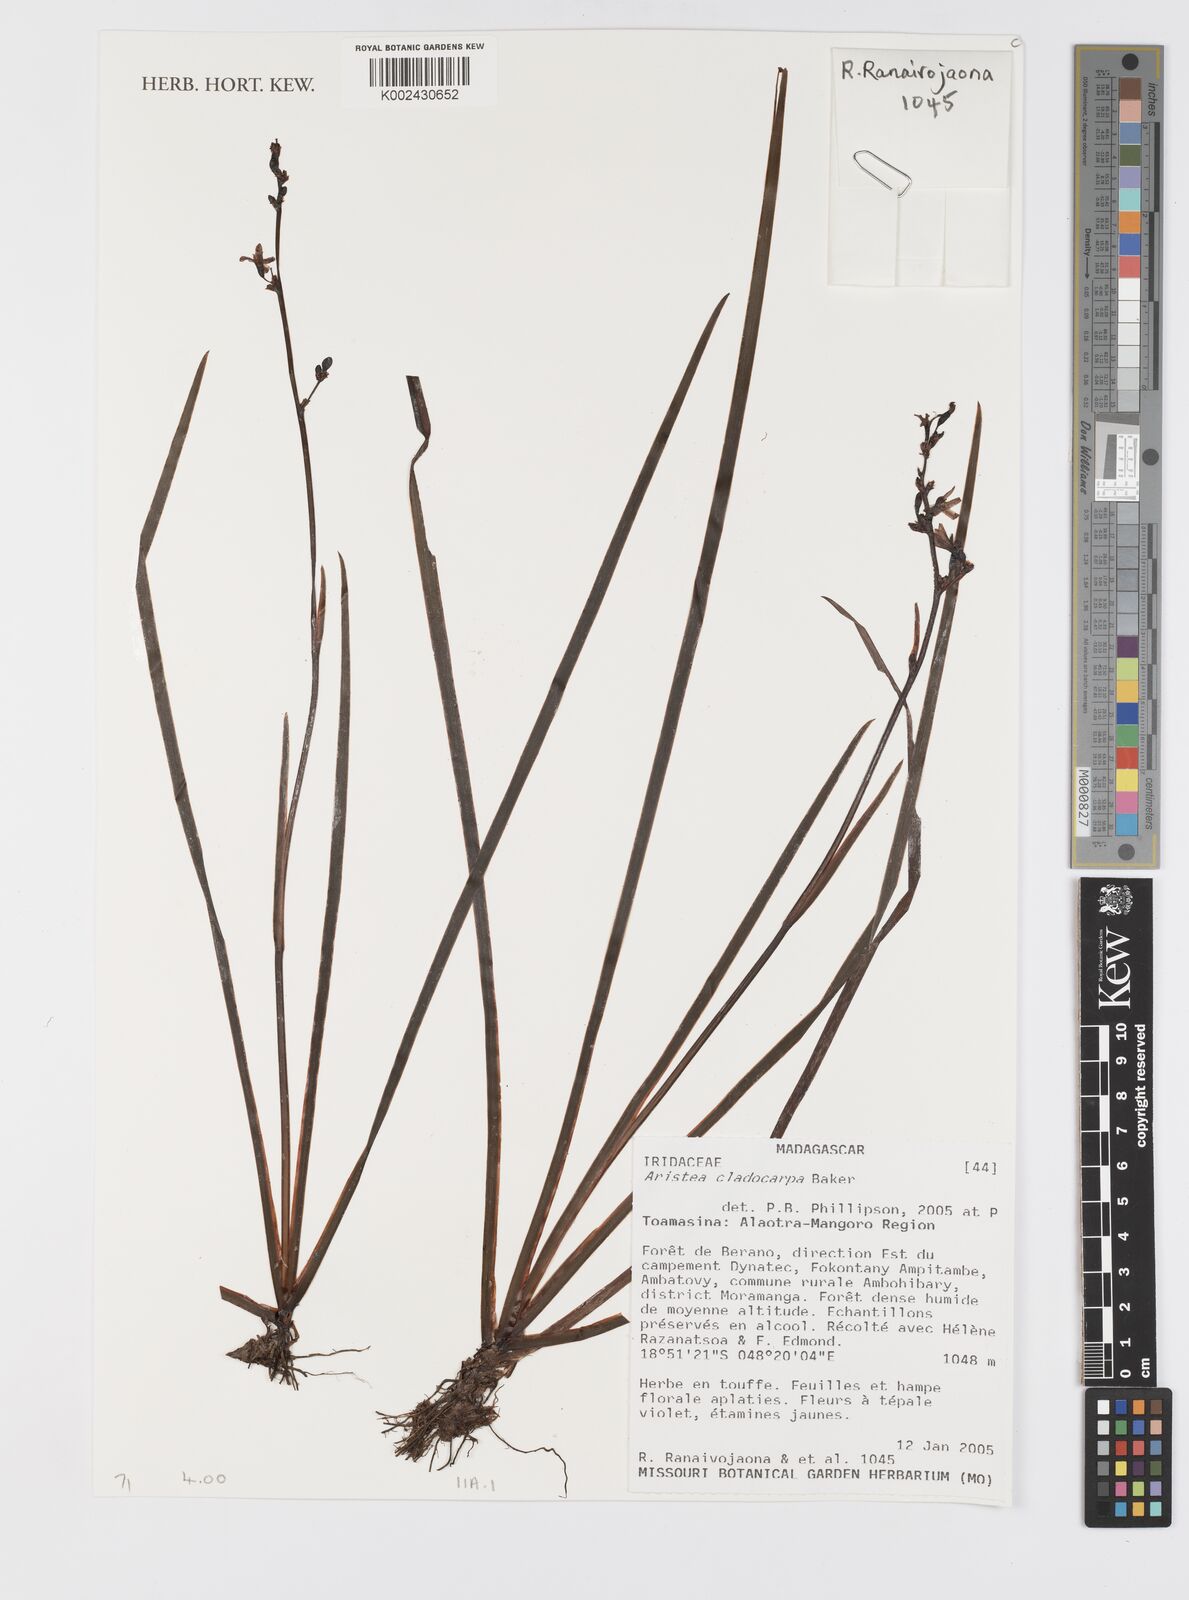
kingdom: Plantae
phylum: Tracheophyta
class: Liliopsida
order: Asparagales
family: Iridaceae
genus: Aristea
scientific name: Aristea cladocarpa
